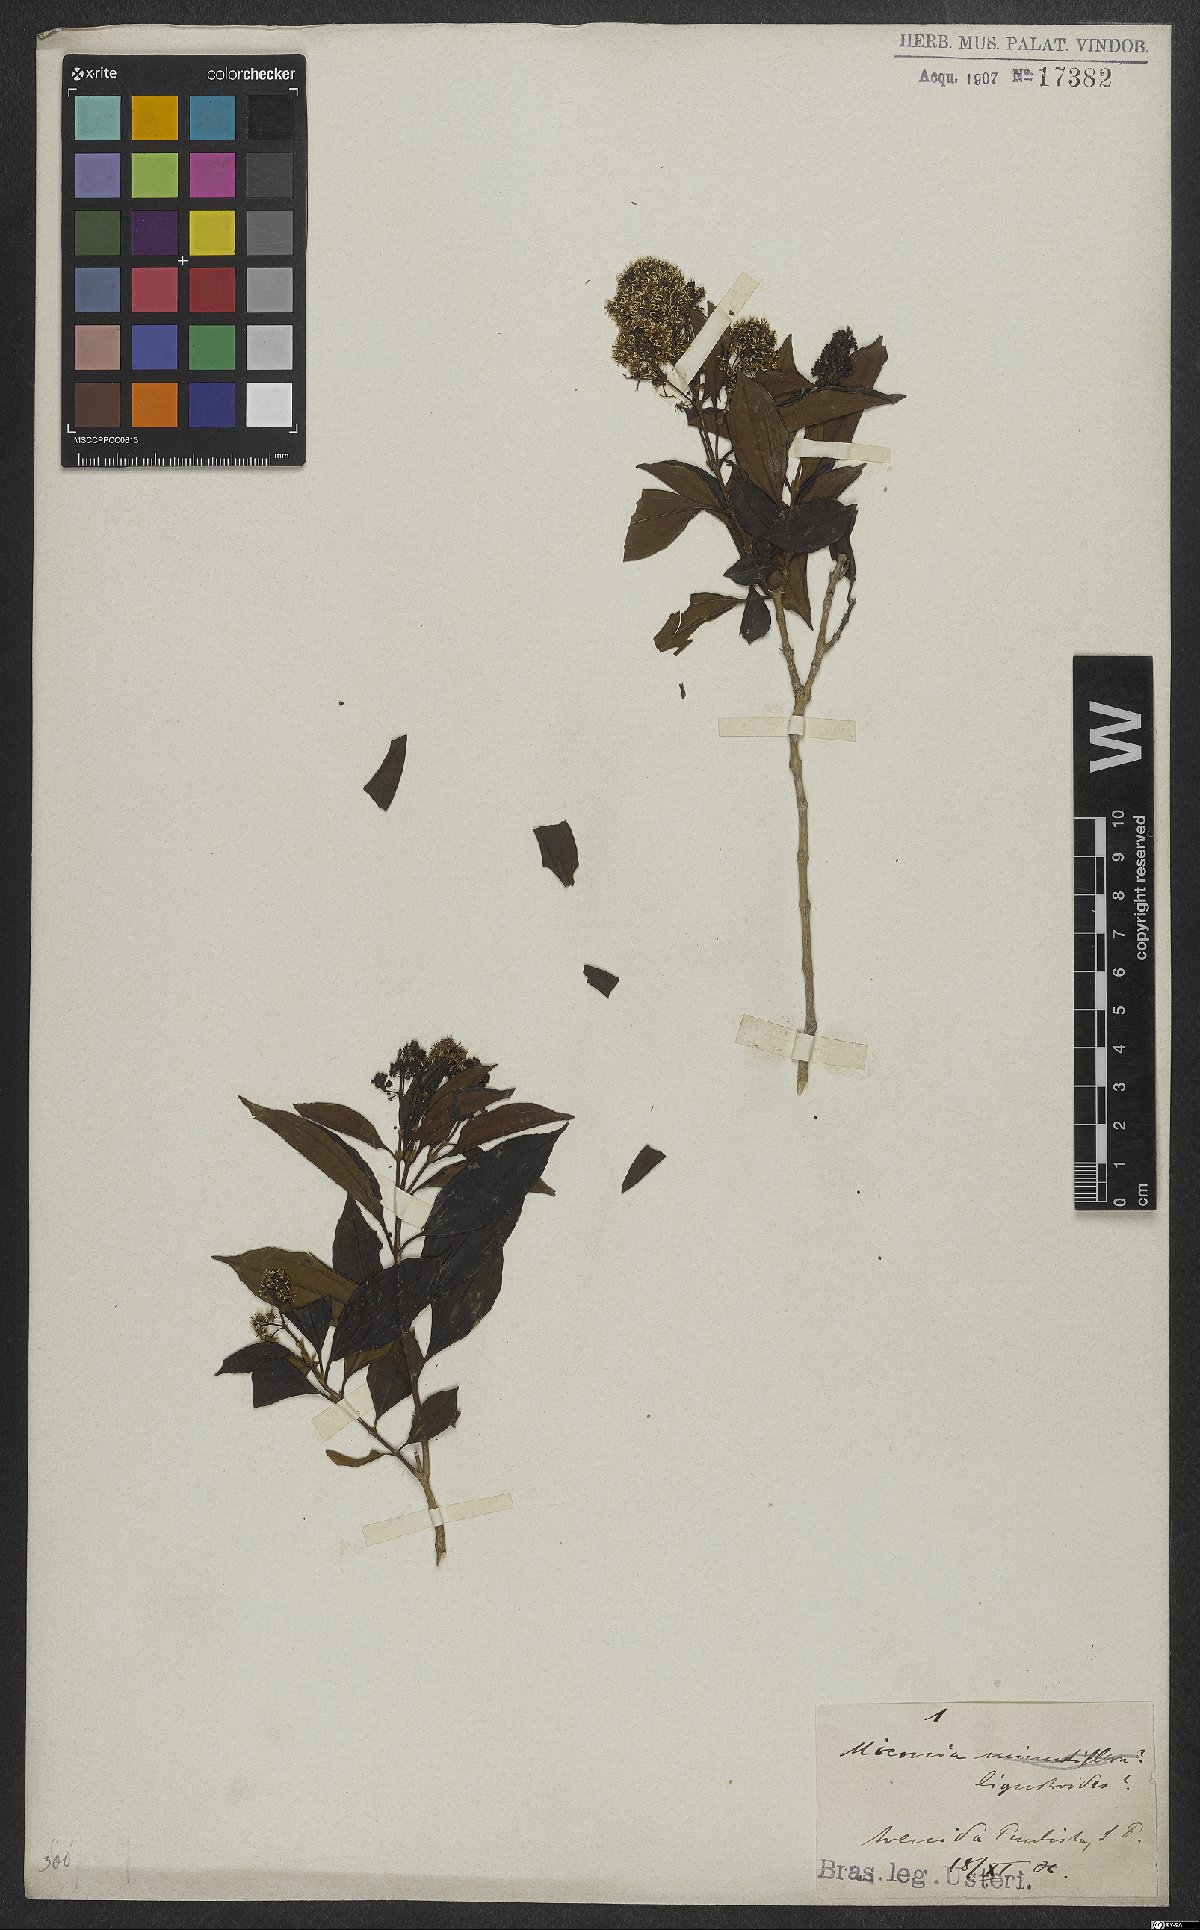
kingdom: Plantae
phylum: Tracheophyta
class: Magnoliopsida
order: Myrtales
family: Melastomataceae
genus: Miconia
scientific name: Miconia ligustroides
